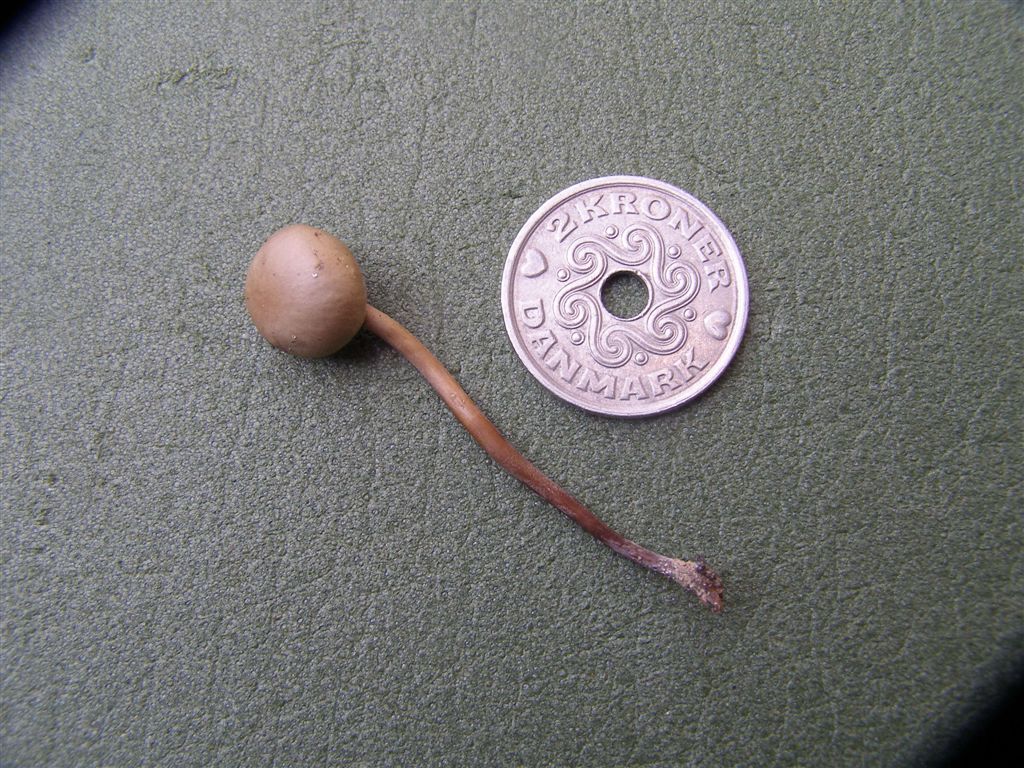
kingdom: Fungi
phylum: Basidiomycota
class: Agaricomycetes
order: Agaricales
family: Bolbitiaceae
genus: Panaeolus
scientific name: Panaeolus fimicola
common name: tidlig glanshat
